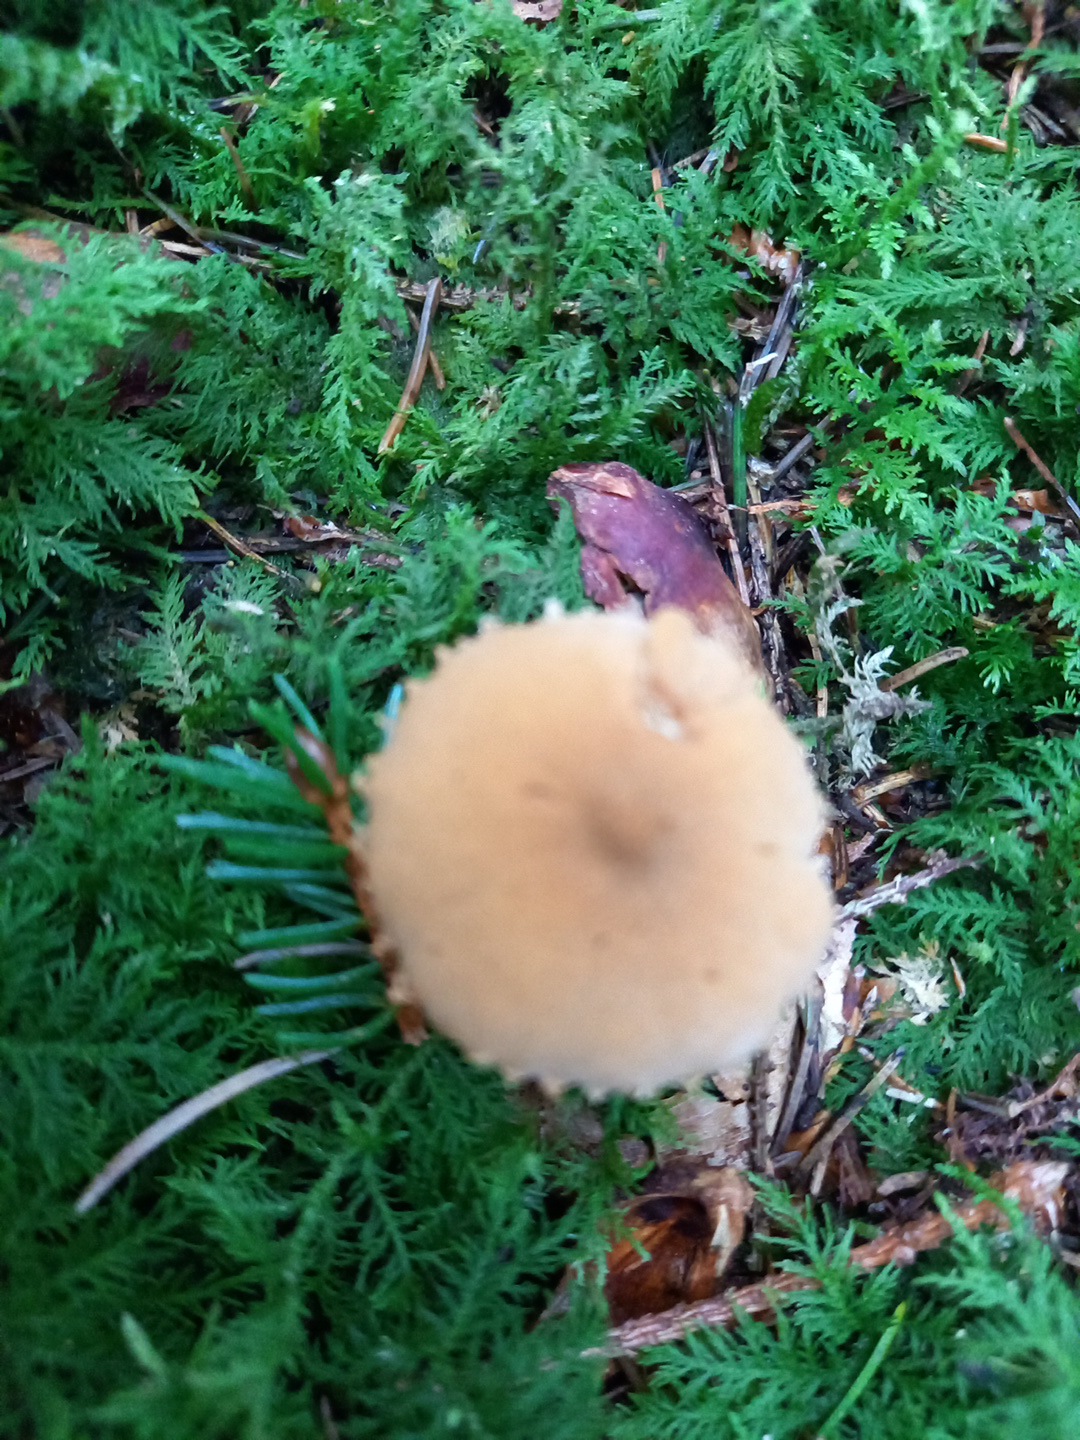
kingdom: Fungi
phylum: Basidiomycota
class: Agaricomycetes
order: Agaricales
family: Tricholomataceae
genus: Cystoderma
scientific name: Cystoderma
